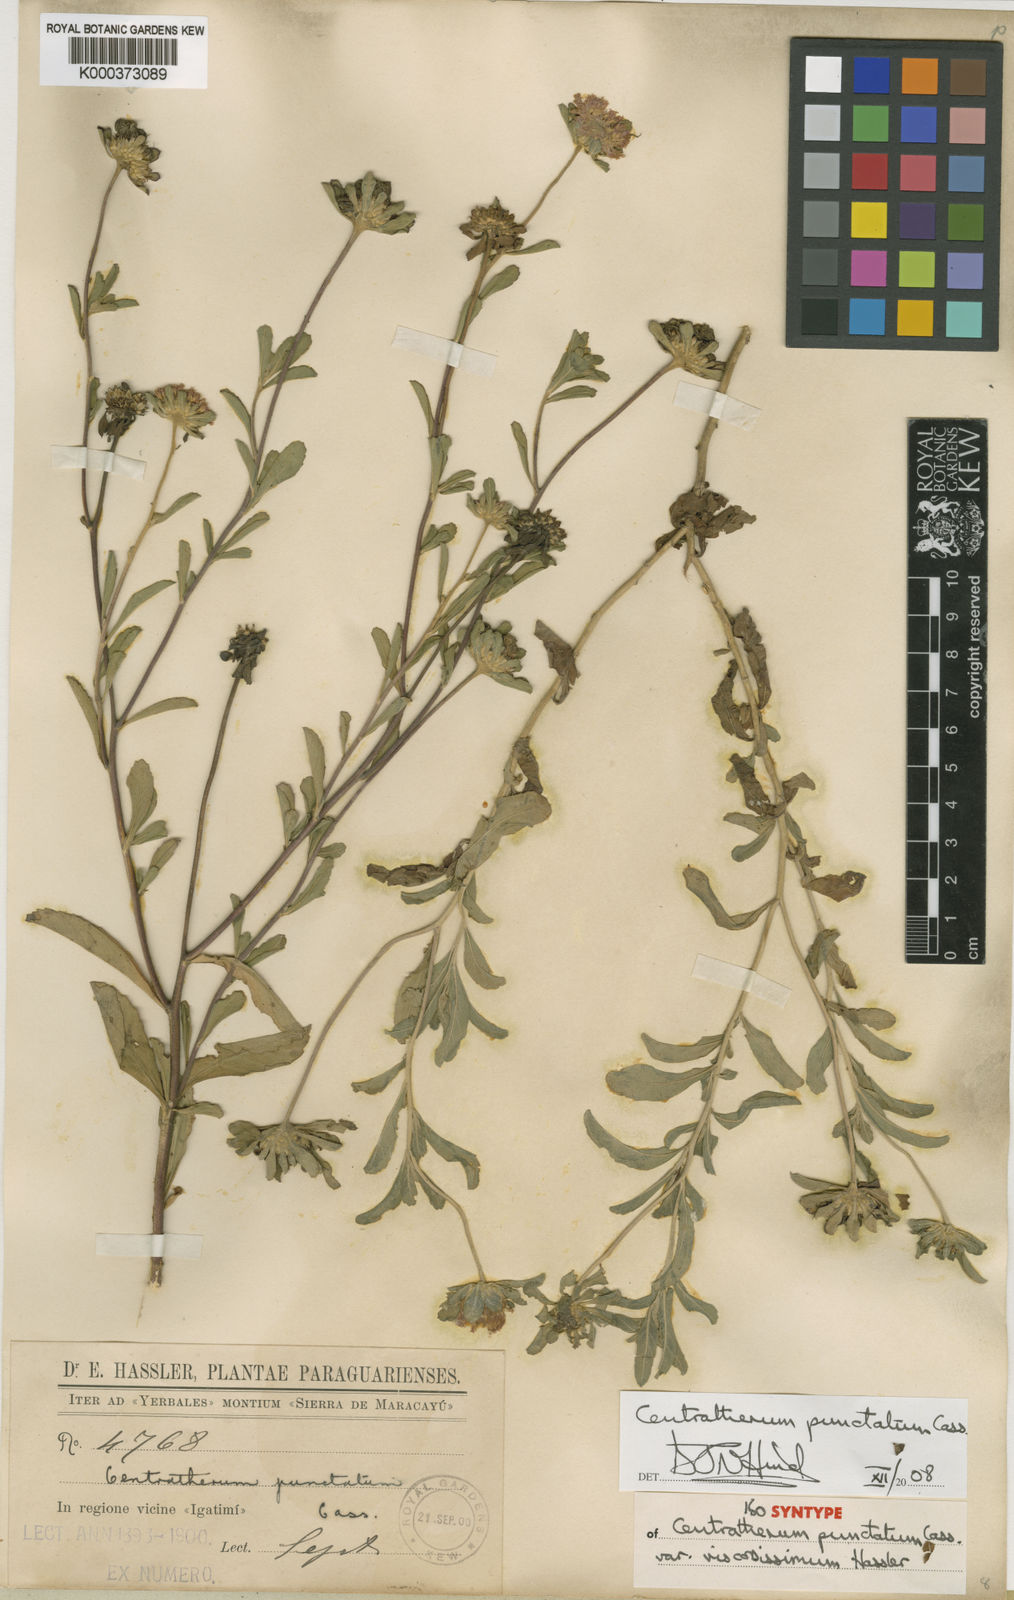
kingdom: Plantae
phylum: Tracheophyta
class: Magnoliopsida
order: Asterales
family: Asteraceae
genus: Centratherum
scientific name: Centratherum punctatum
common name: Larkdaisy
